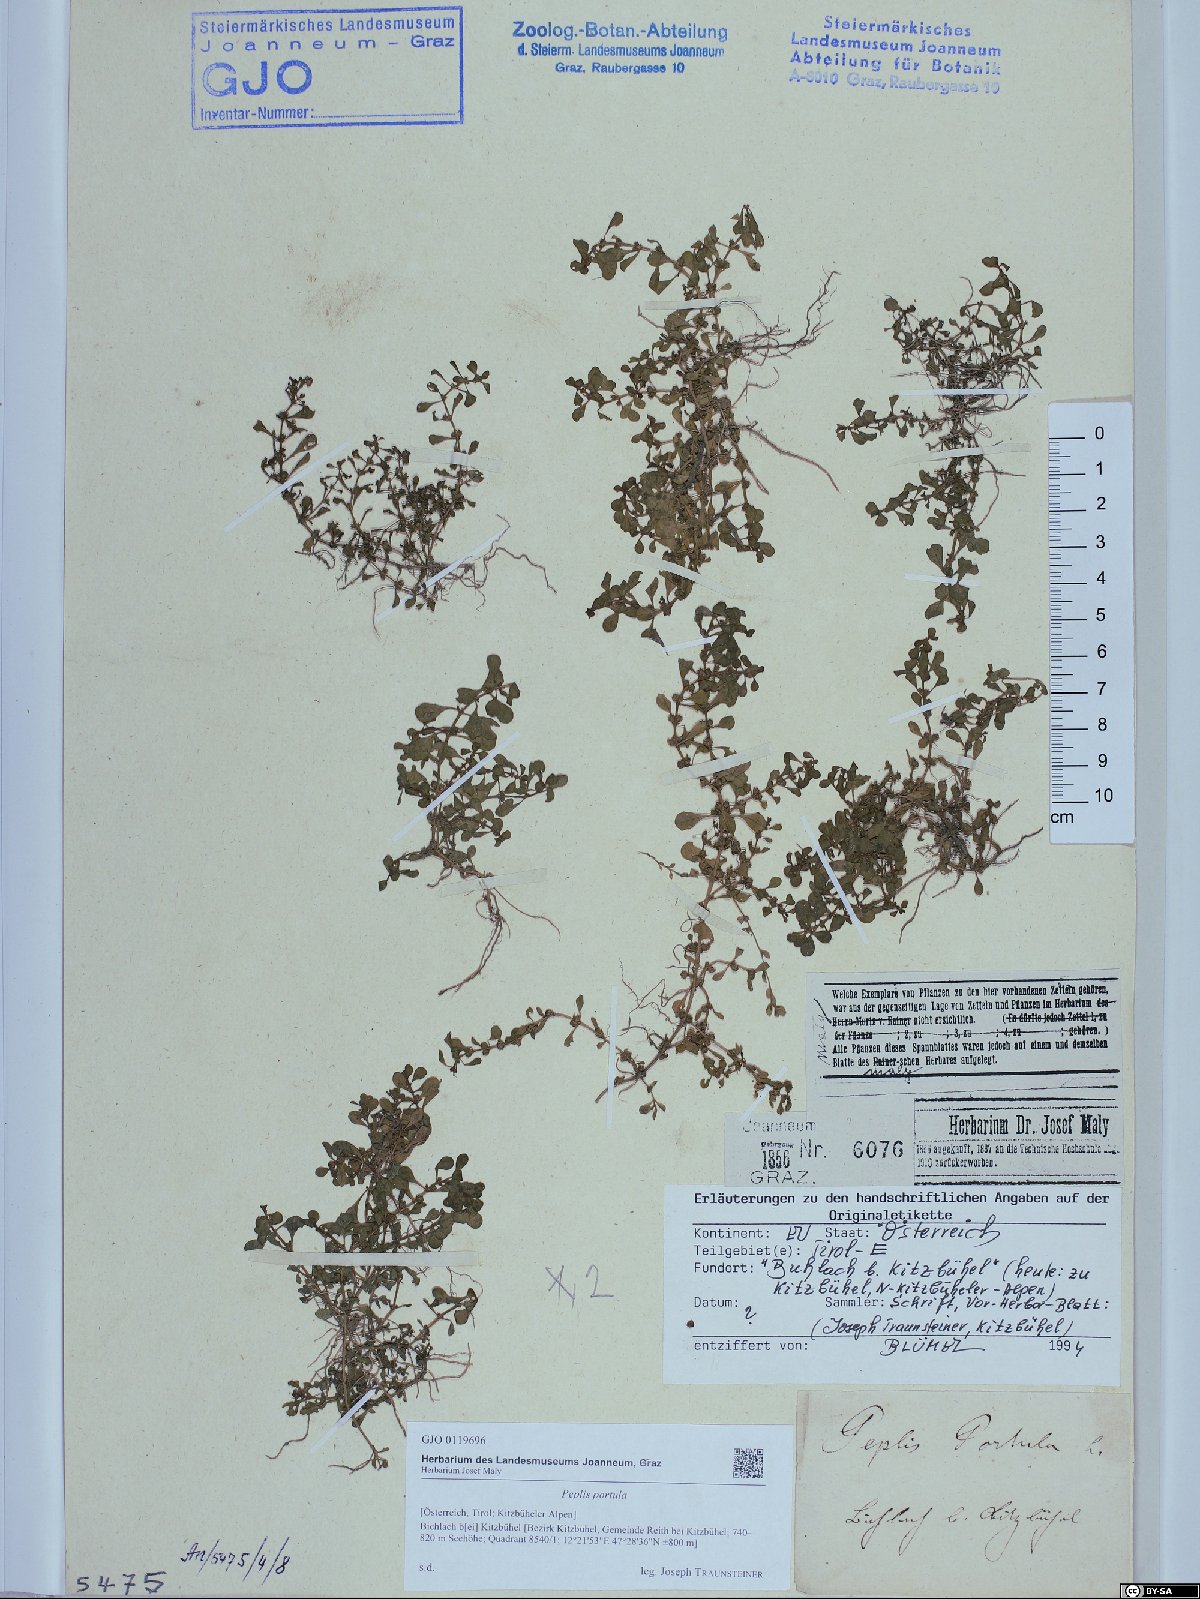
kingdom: Plantae
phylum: Tracheophyta
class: Magnoliopsida
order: Myrtales
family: Lythraceae
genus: Lythrum
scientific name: Lythrum portula
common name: Water purslane
